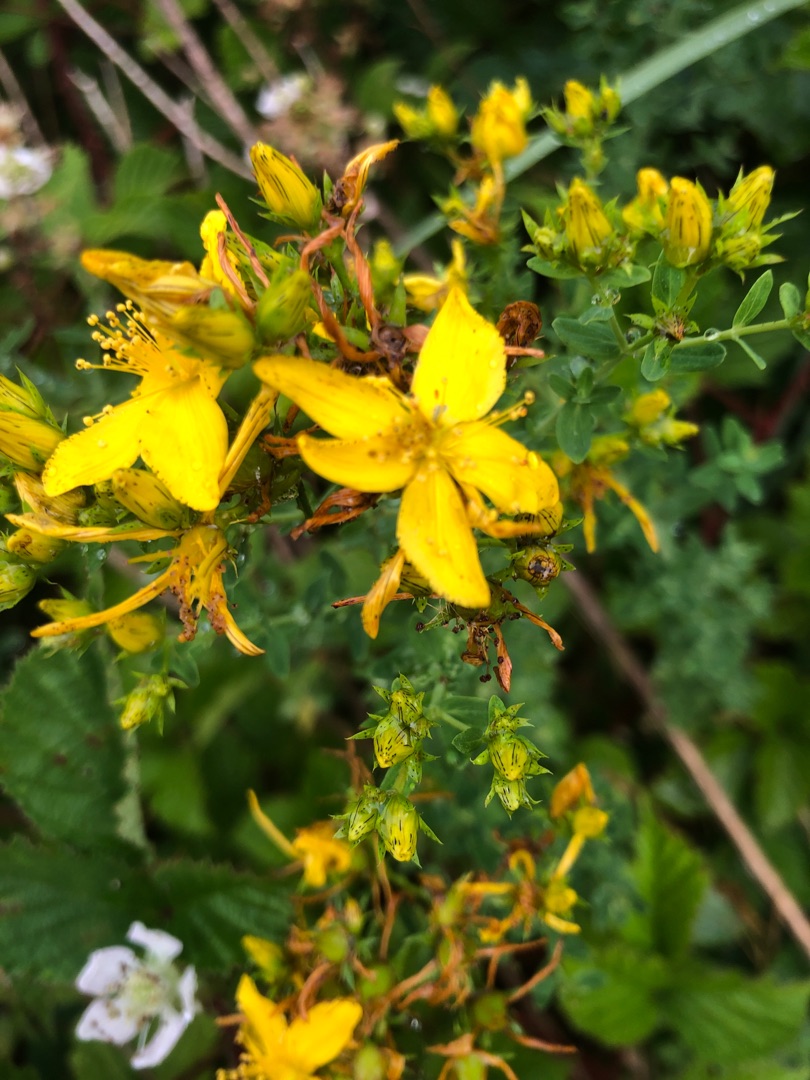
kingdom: Plantae
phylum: Tracheophyta
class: Magnoliopsida
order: Malpighiales
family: Hypericaceae
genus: Hypericum
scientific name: Hypericum perforatum
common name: Prikbladet perikon
